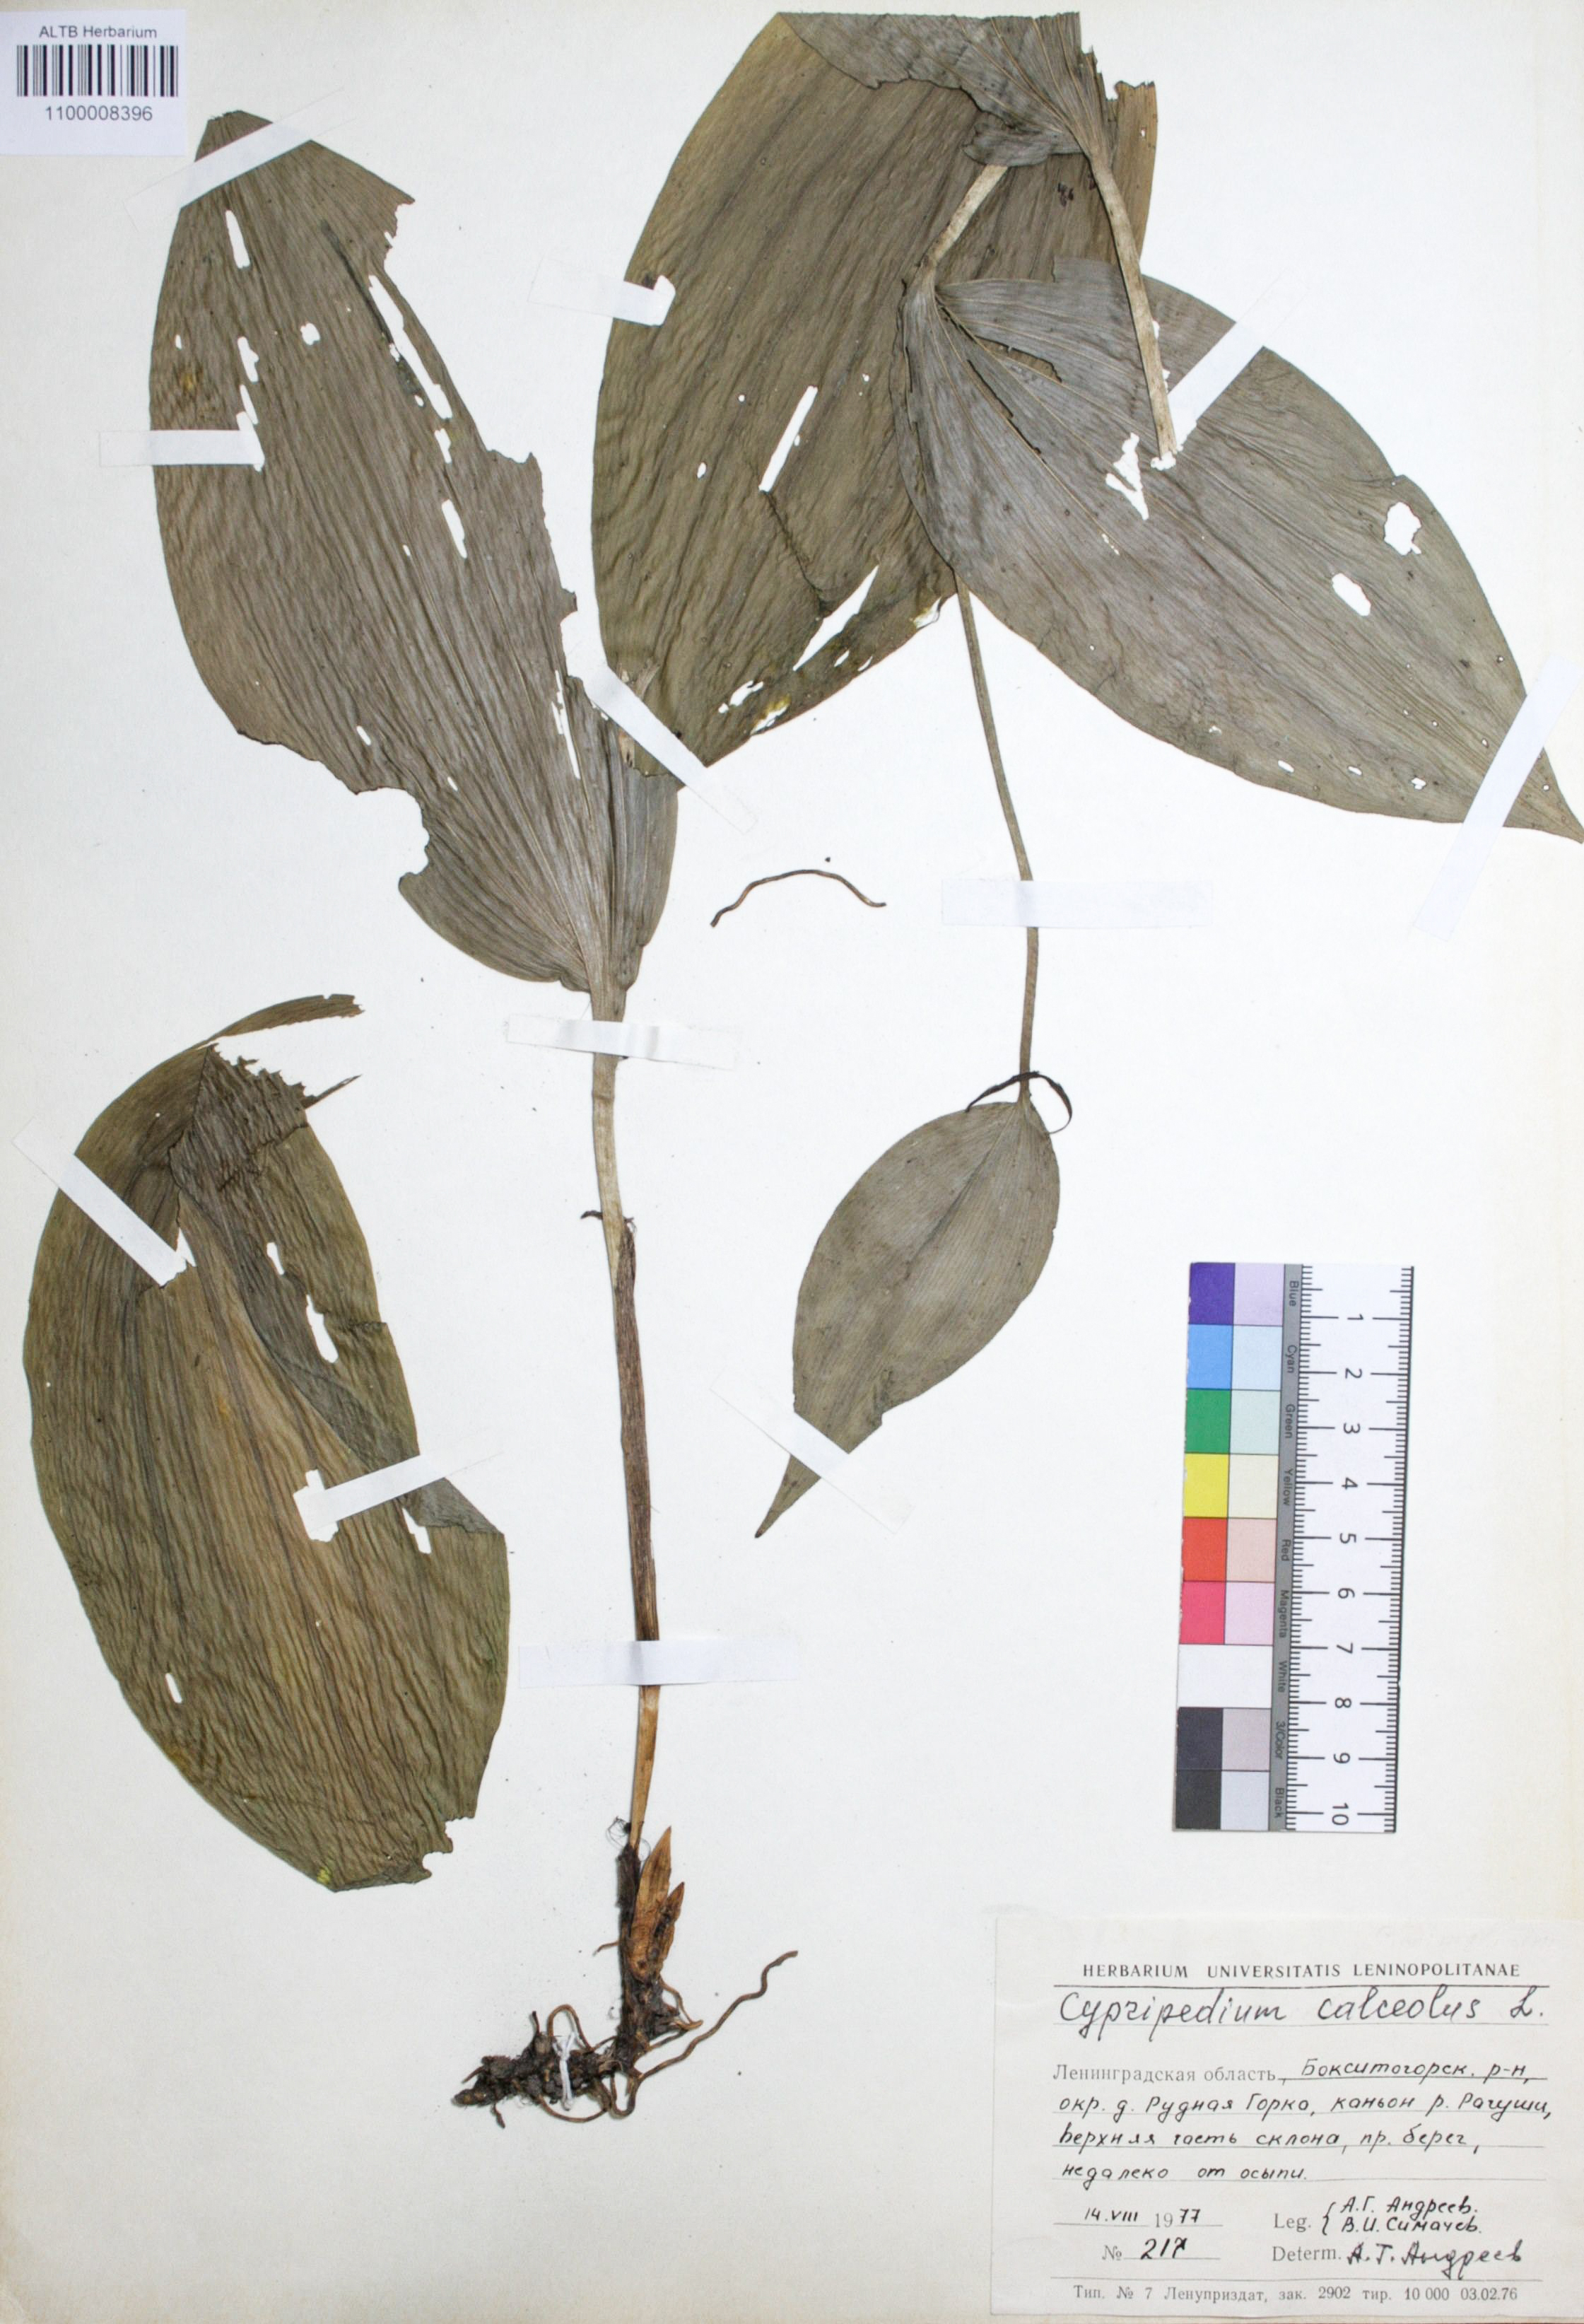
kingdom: Plantae
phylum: Tracheophyta
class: Liliopsida
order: Asparagales
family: Orchidaceae
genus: Cypripedium
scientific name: Cypripedium calceolus
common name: Lady's-slipper
